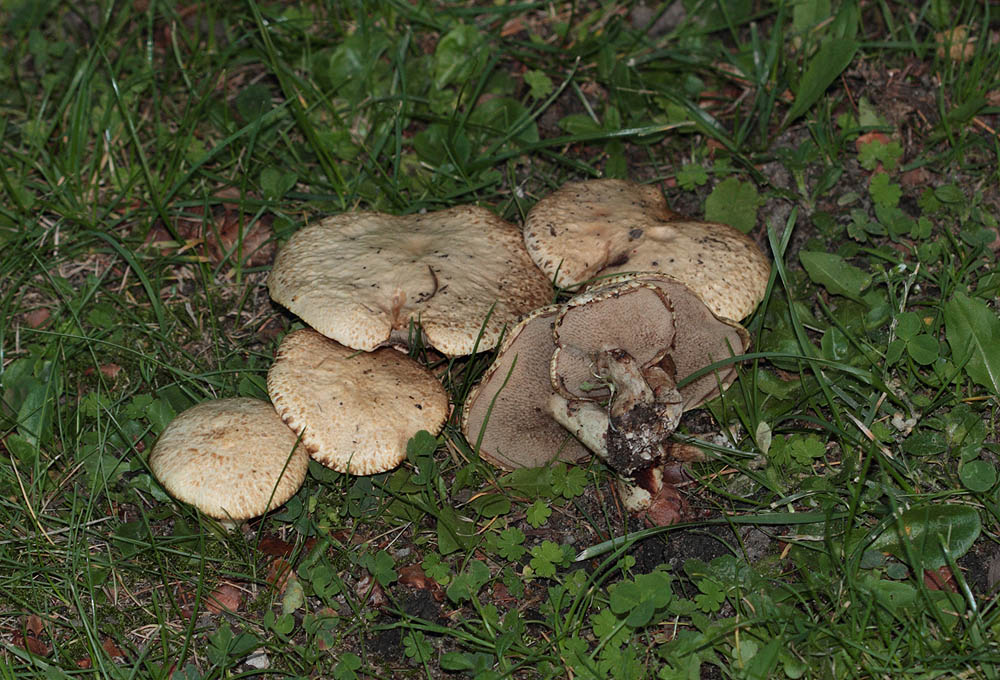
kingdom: Fungi
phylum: Basidiomycota
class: Agaricomycetes
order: Boletales
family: Suillaceae
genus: Suillus
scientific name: Suillus viscidus
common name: olivengrå slimrørhat
